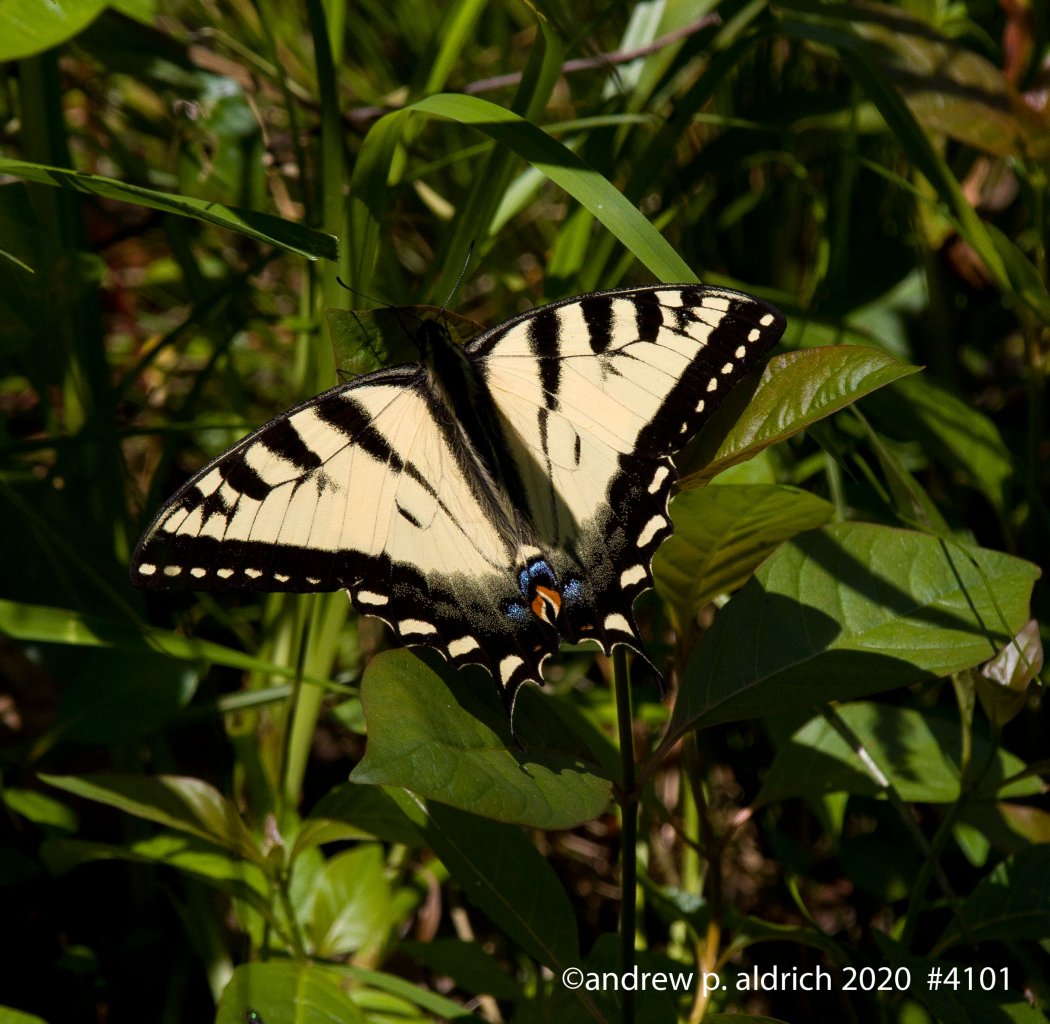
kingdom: Animalia
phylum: Arthropoda
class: Insecta
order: Lepidoptera
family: Papilionidae
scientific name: Papilionidae
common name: Swallowtails and Parnassians
